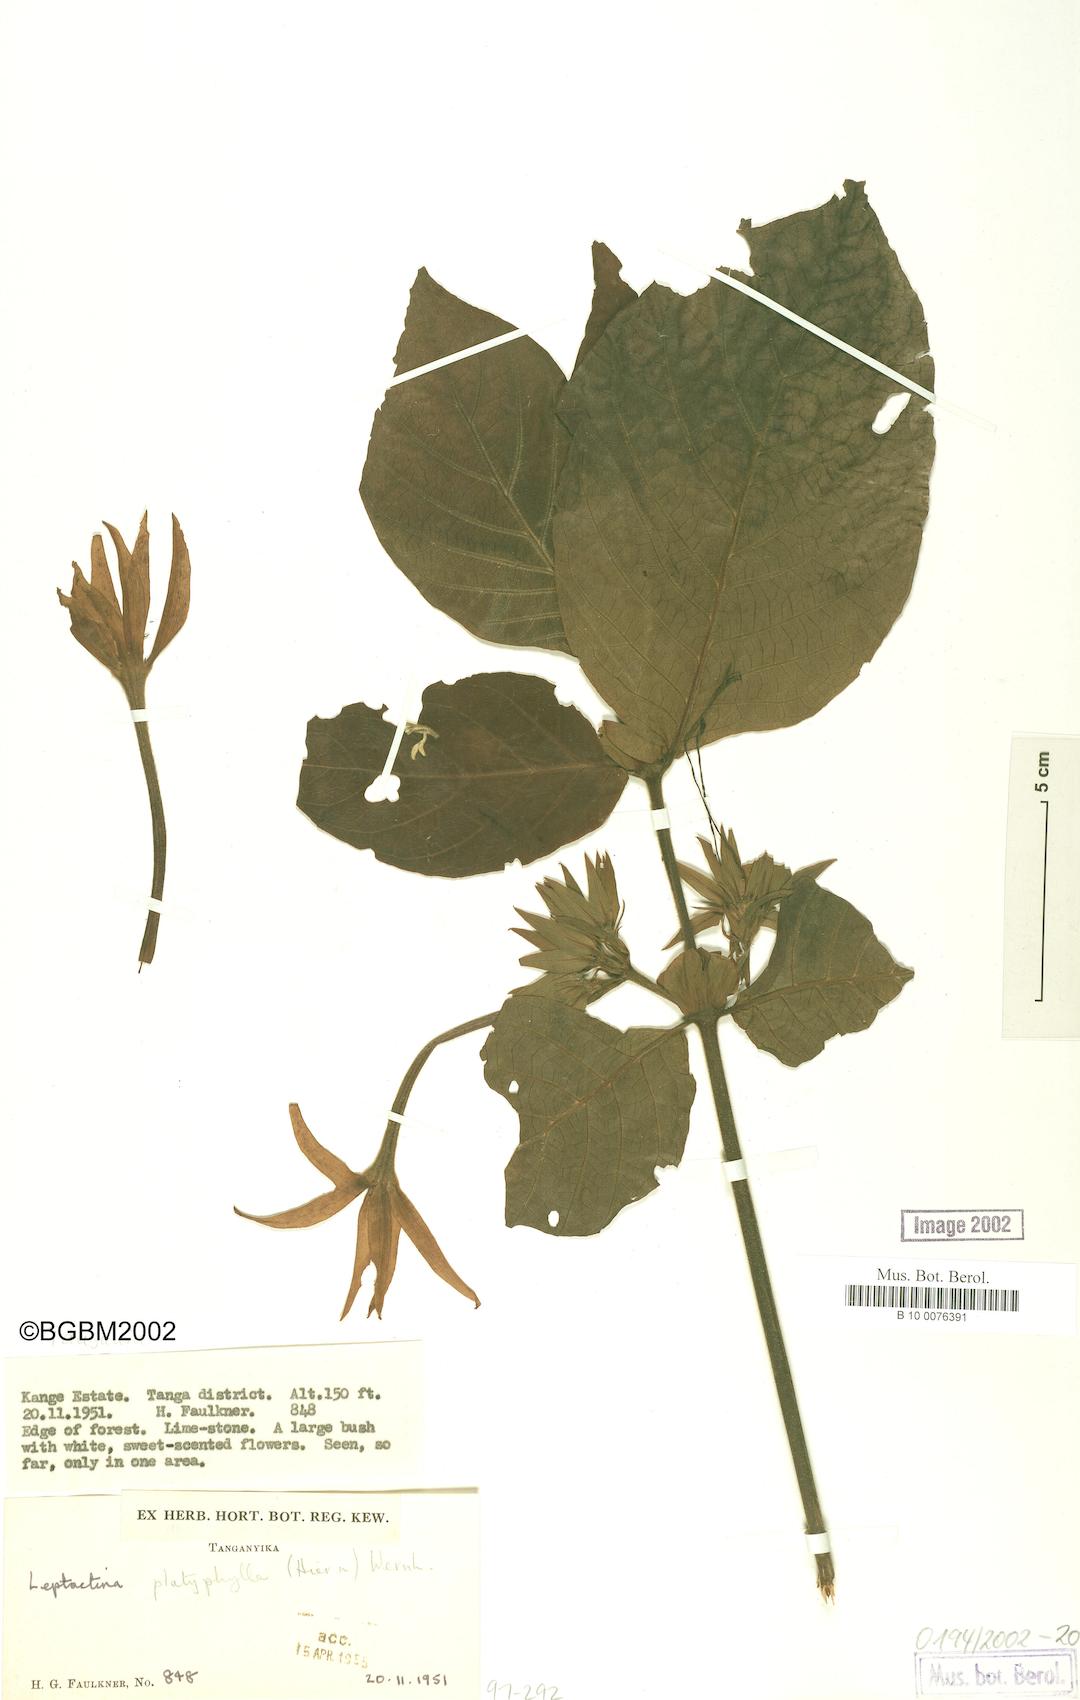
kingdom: Plantae
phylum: Tracheophyta
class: Magnoliopsida
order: Gentianales
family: Rubiaceae
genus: Leptactina
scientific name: Leptactina platyphylla
